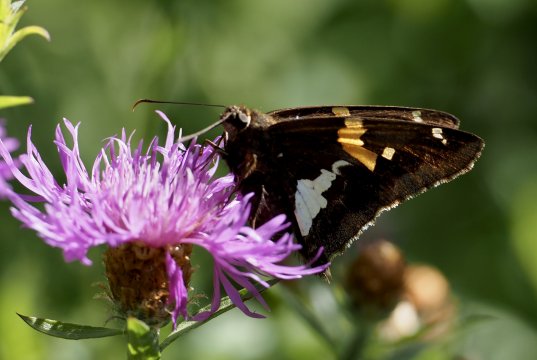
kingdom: Animalia
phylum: Arthropoda
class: Insecta
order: Lepidoptera
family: Hesperiidae
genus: Epargyreus
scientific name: Epargyreus clarus
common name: Silver-spotted Skipper
